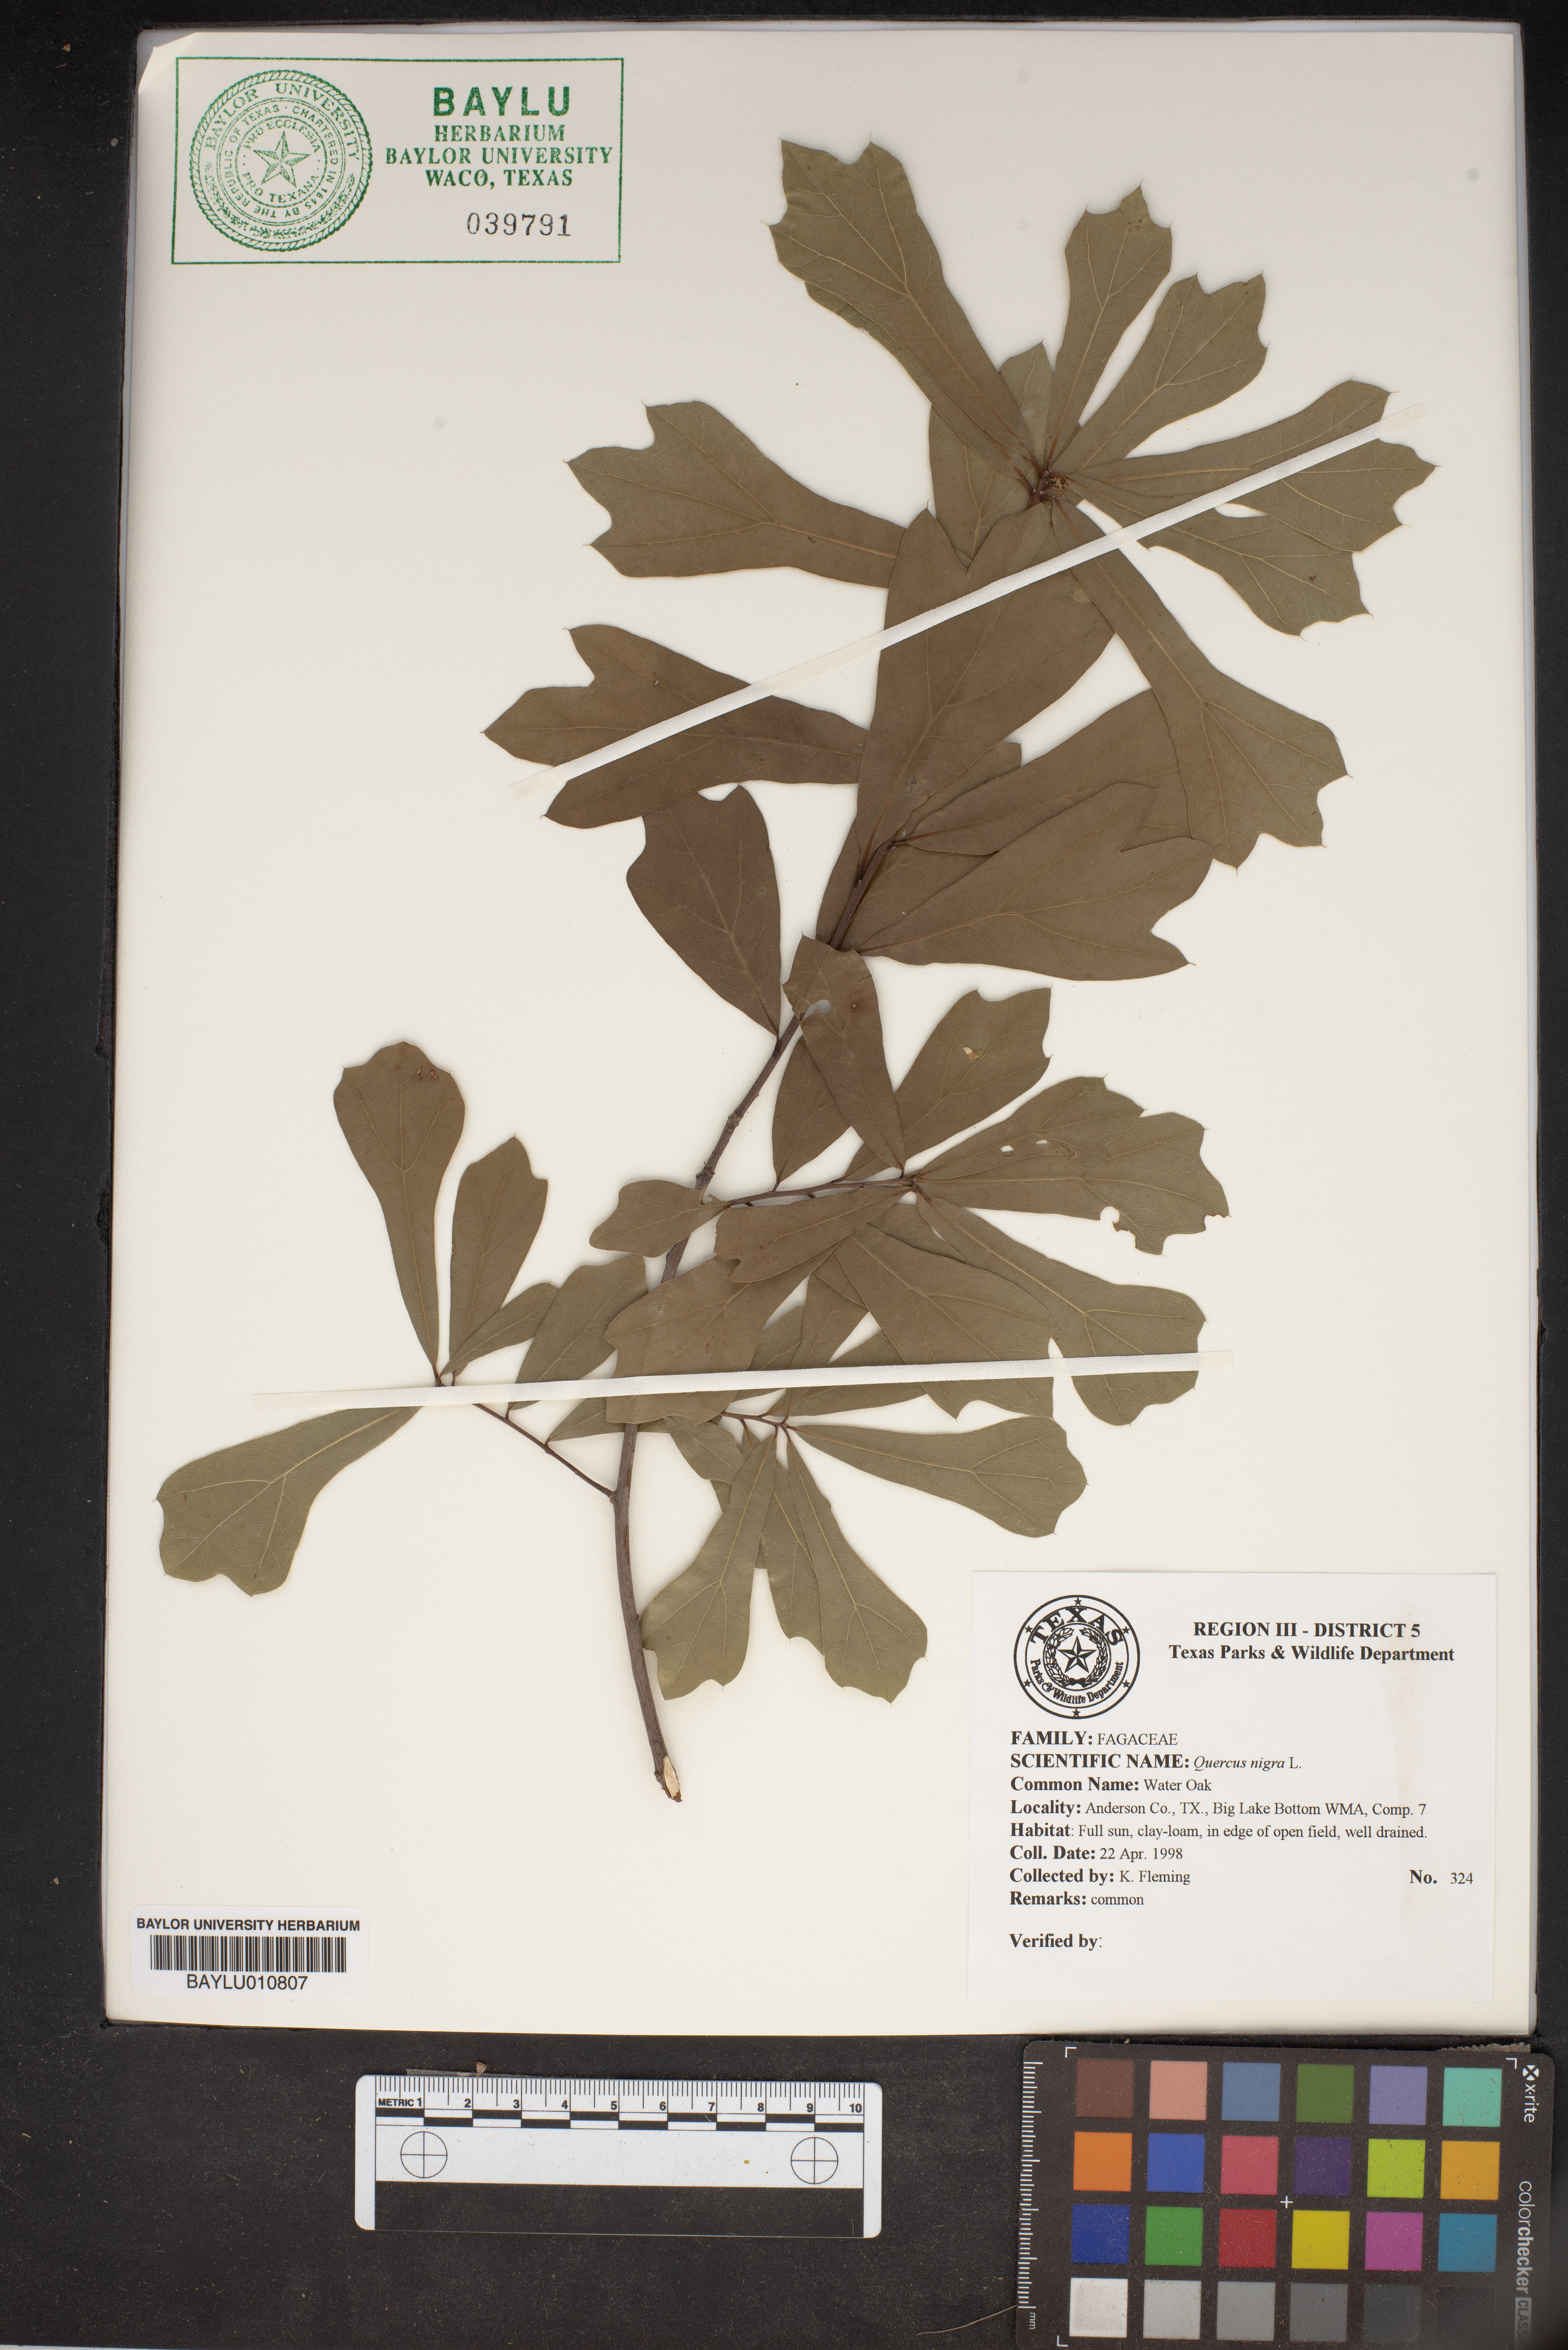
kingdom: Plantae
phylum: Tracheophyta
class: Magnoliopsida
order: Fagales
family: Fagaceae
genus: Quercus
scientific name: Quercus nigra
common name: Water oak
